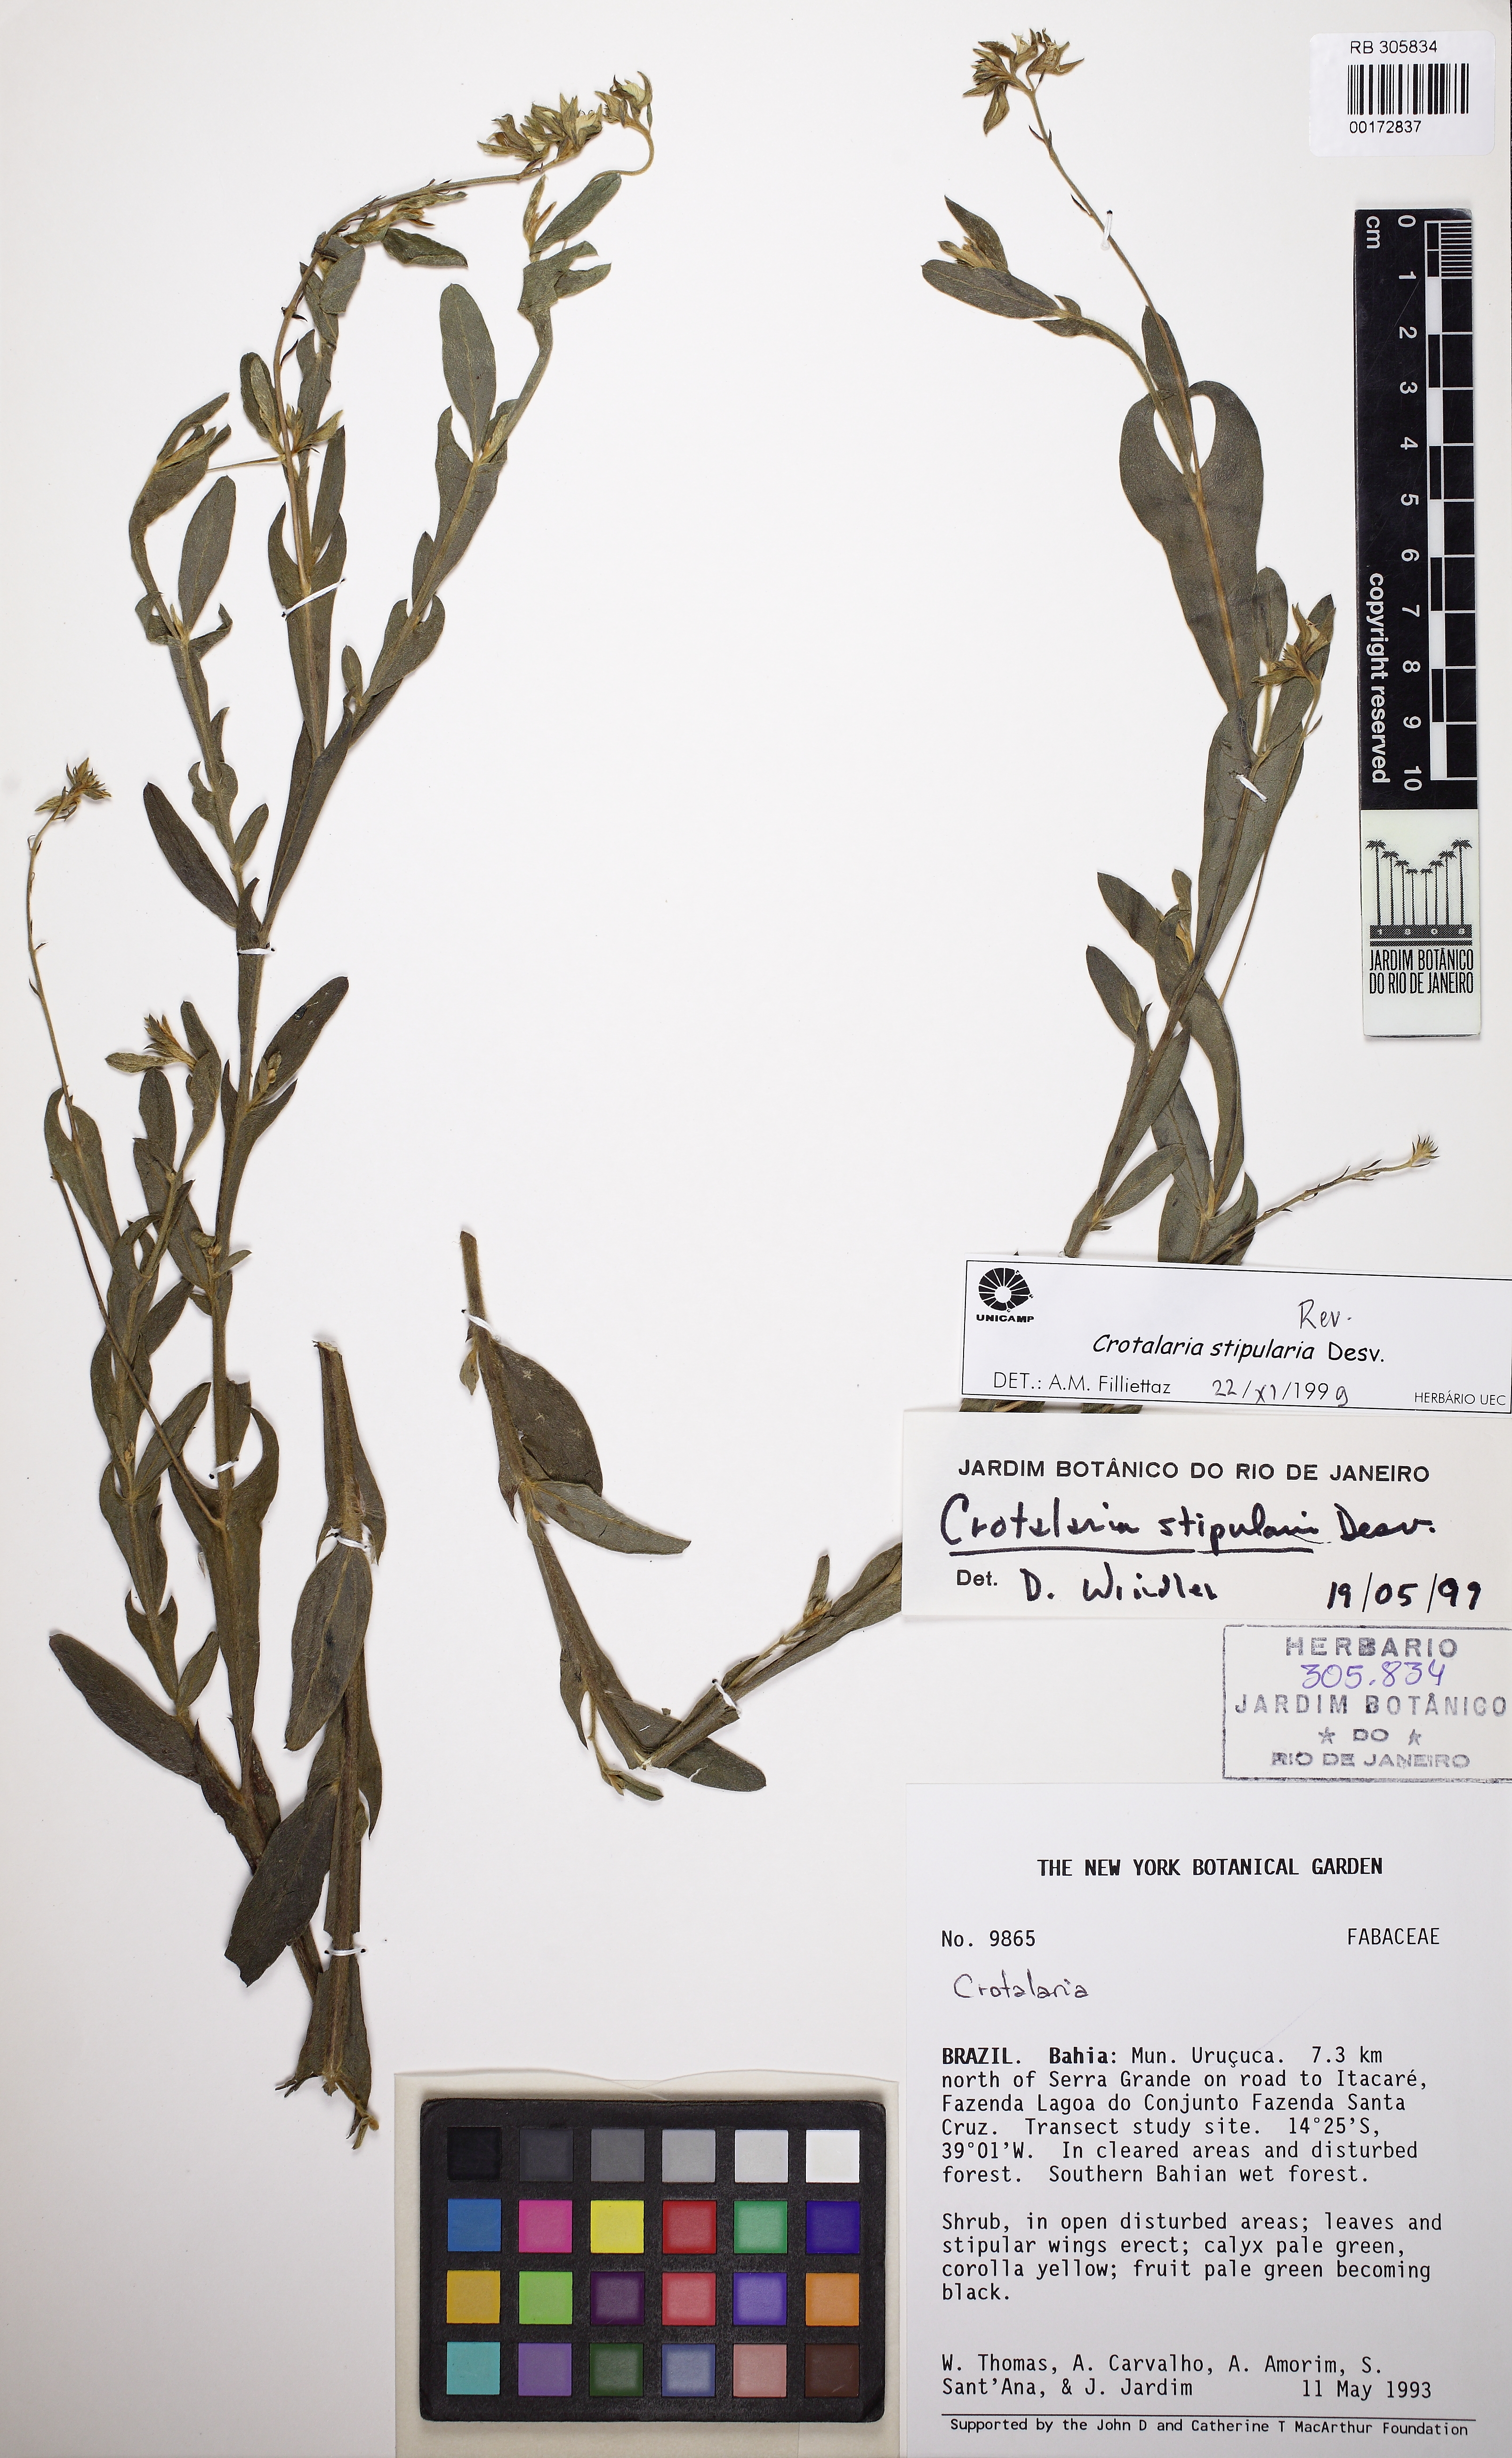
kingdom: Plantae
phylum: Tracheophyta
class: Magnoliopsida
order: Fabales
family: Fabaceae
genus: Crotalaria
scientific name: Crotalaria stipularia
